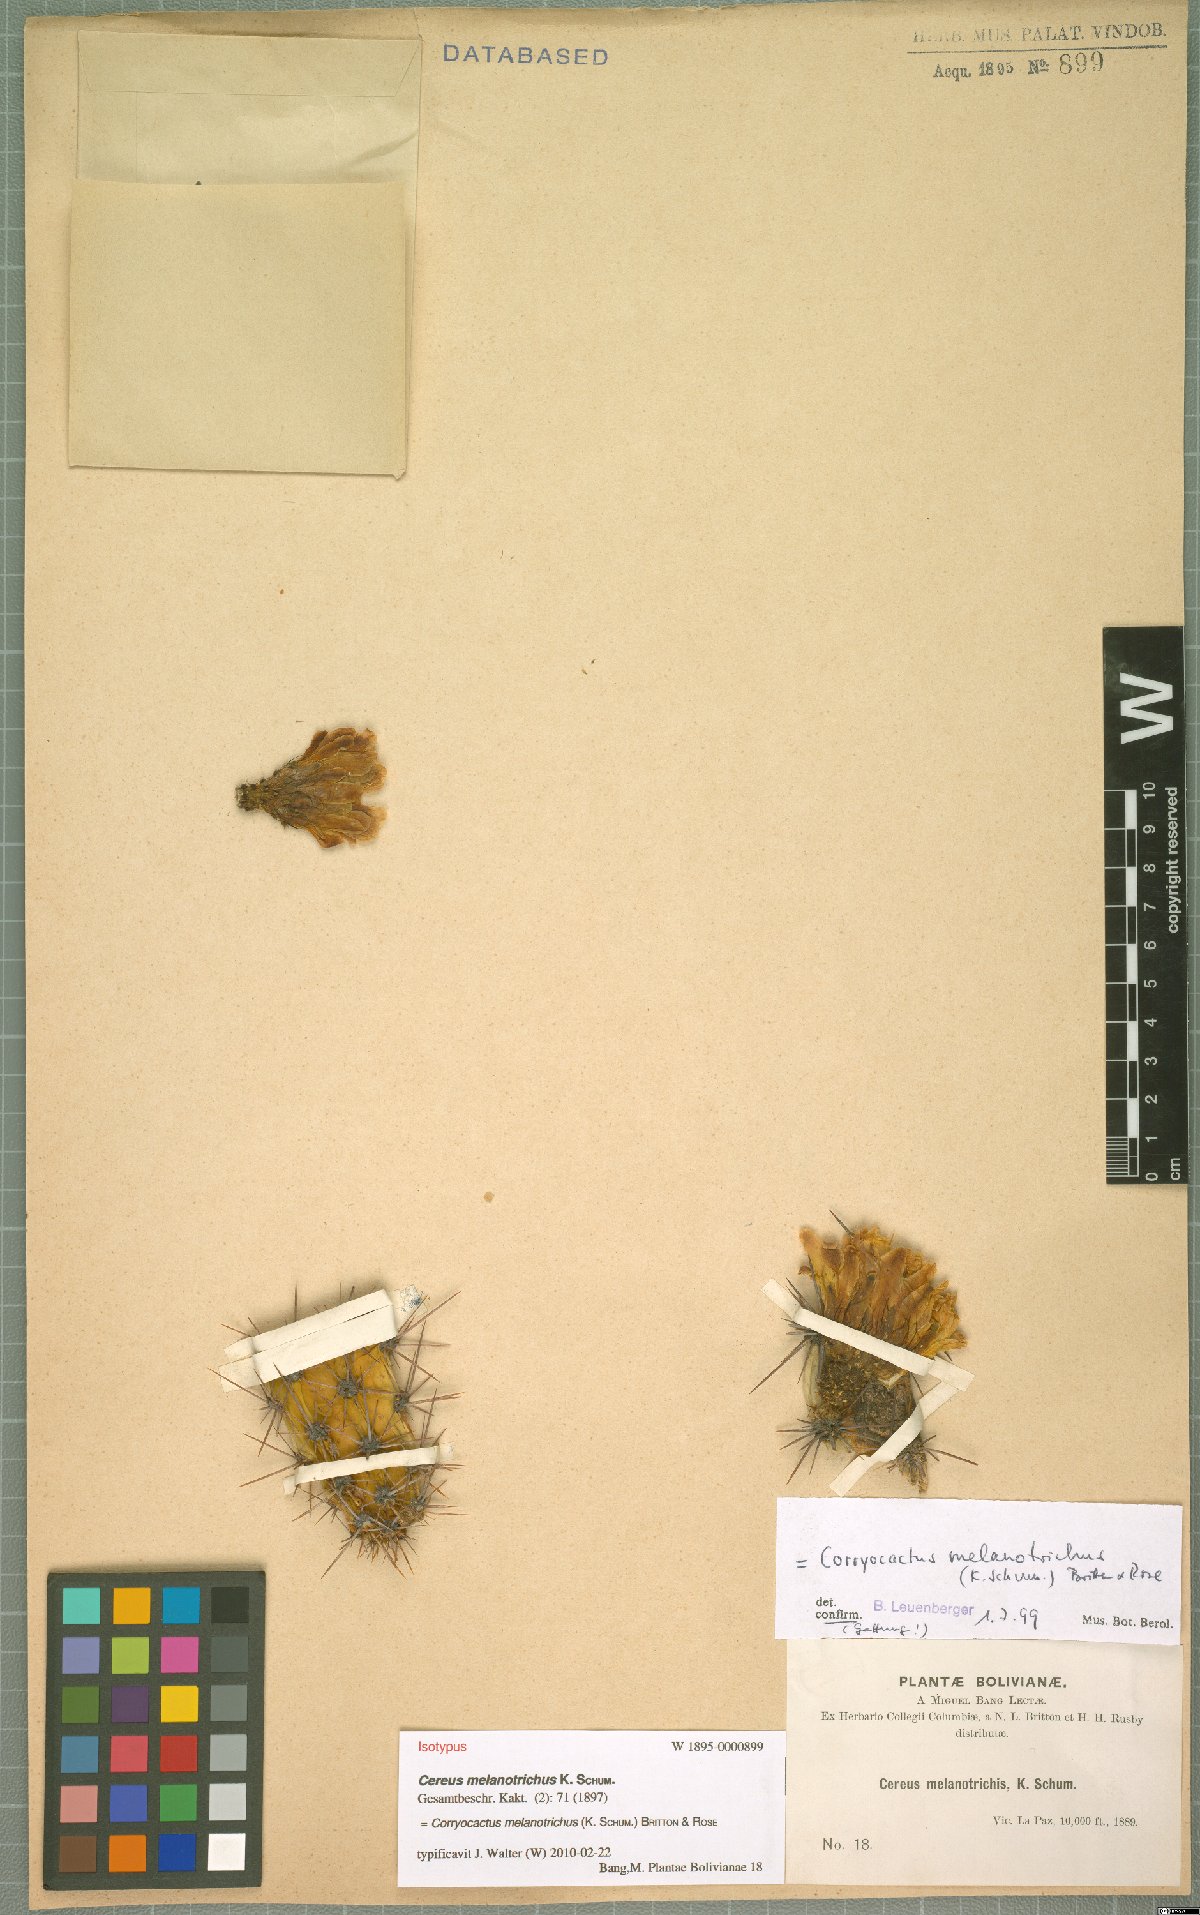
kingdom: Plantae
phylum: Tracheophyta
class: Magnoliopsida
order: Caryophyllales
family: Cactaceae
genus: Corryocactus
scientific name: Corryocactus melanotrichus
